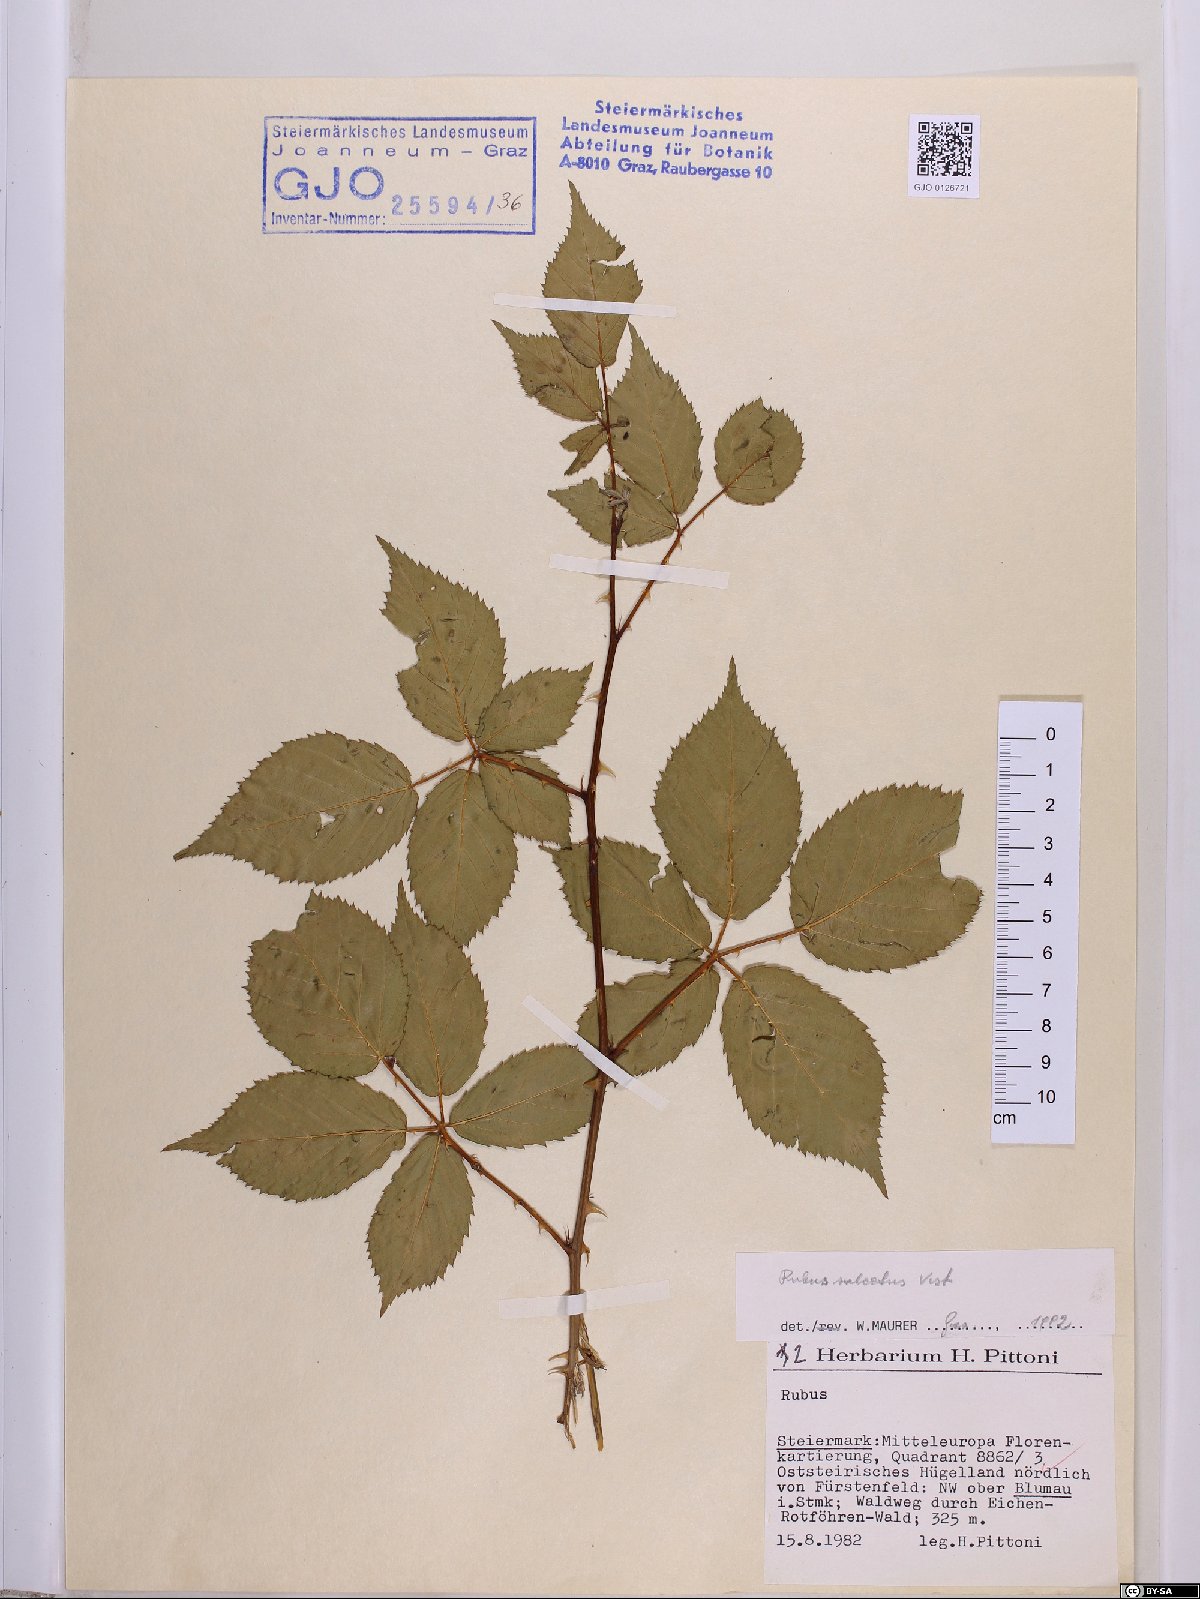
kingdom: Plantae
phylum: Tracheophyta
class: Magnoliopsida
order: Rosales
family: Rosaceae
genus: Rubus
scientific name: Rubus sulcatus
